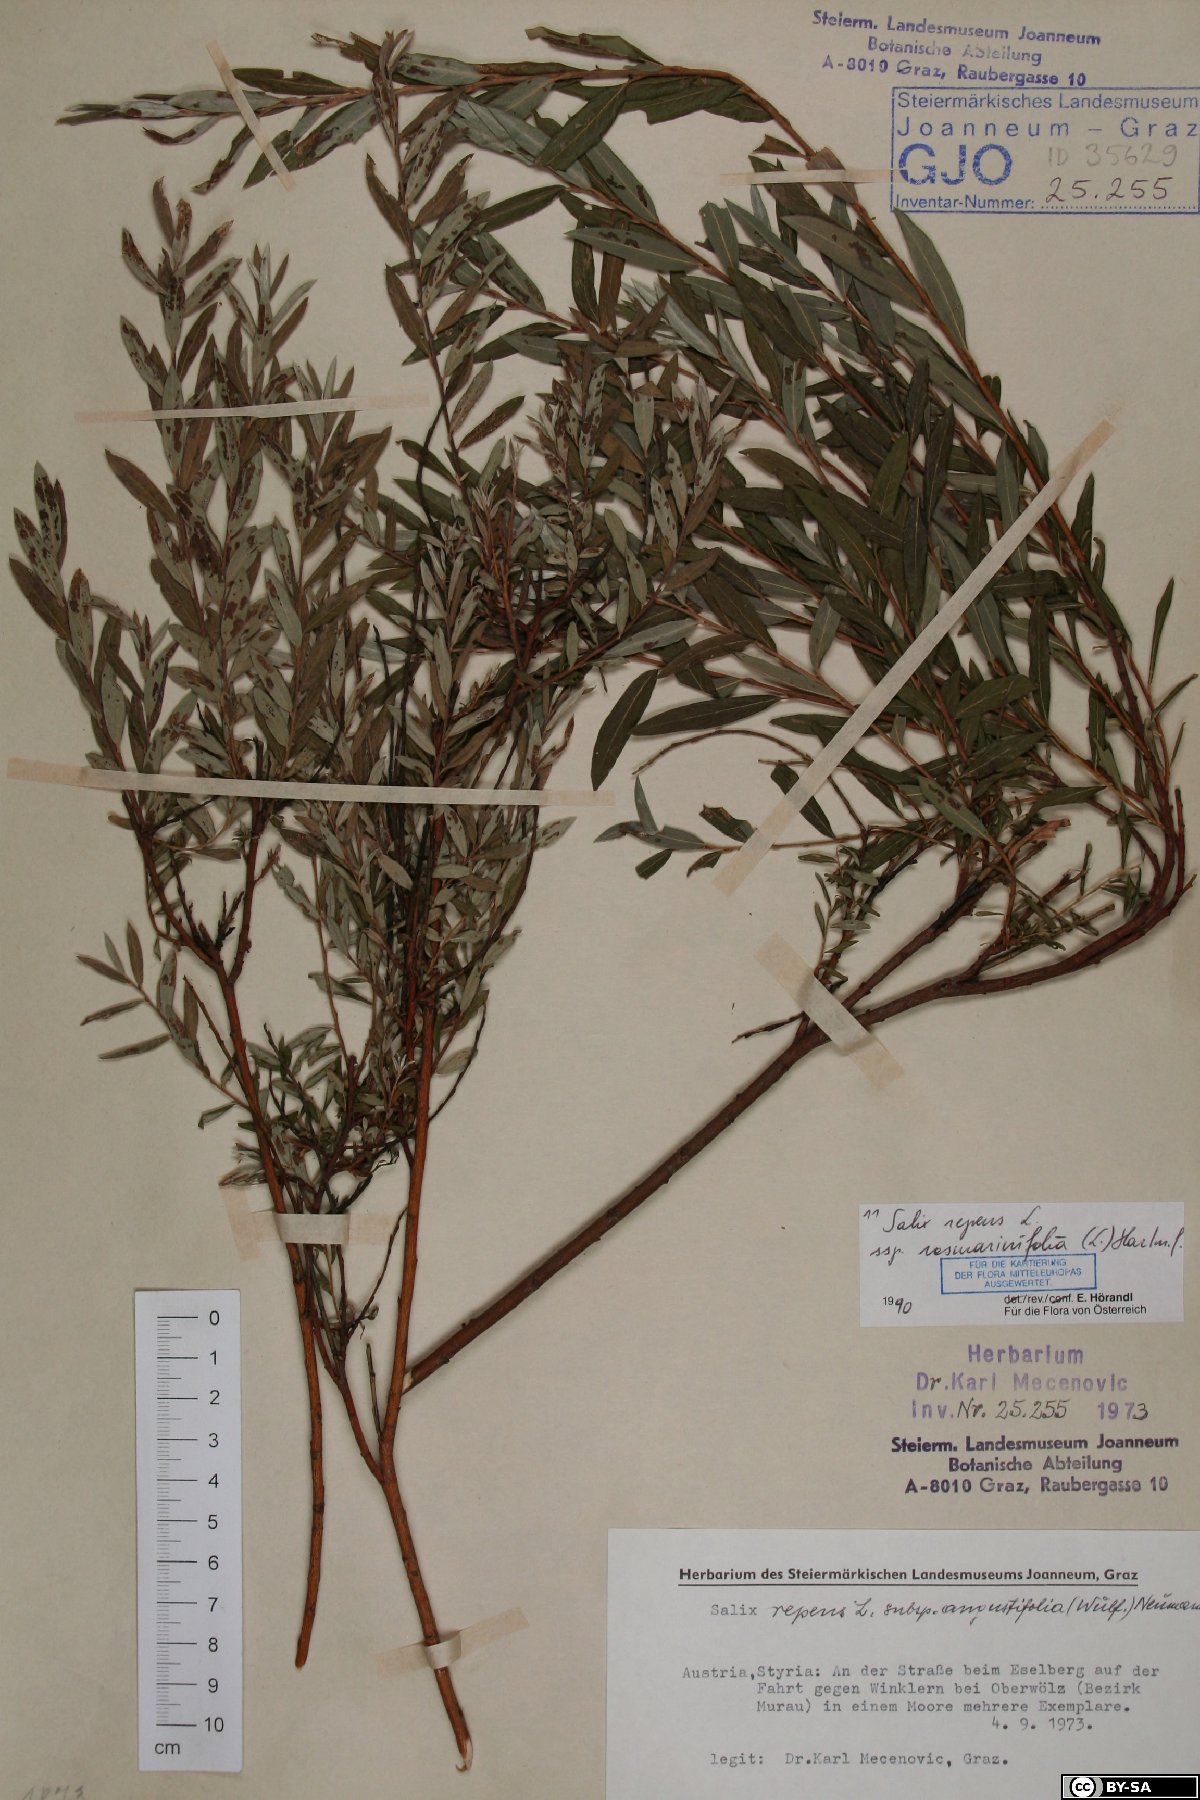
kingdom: Plantae
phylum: Tracheophyta
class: Magnoliopsida
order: Malpighiales
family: Salicaceae
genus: Salix
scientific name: Salix repens
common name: Creeping willow
